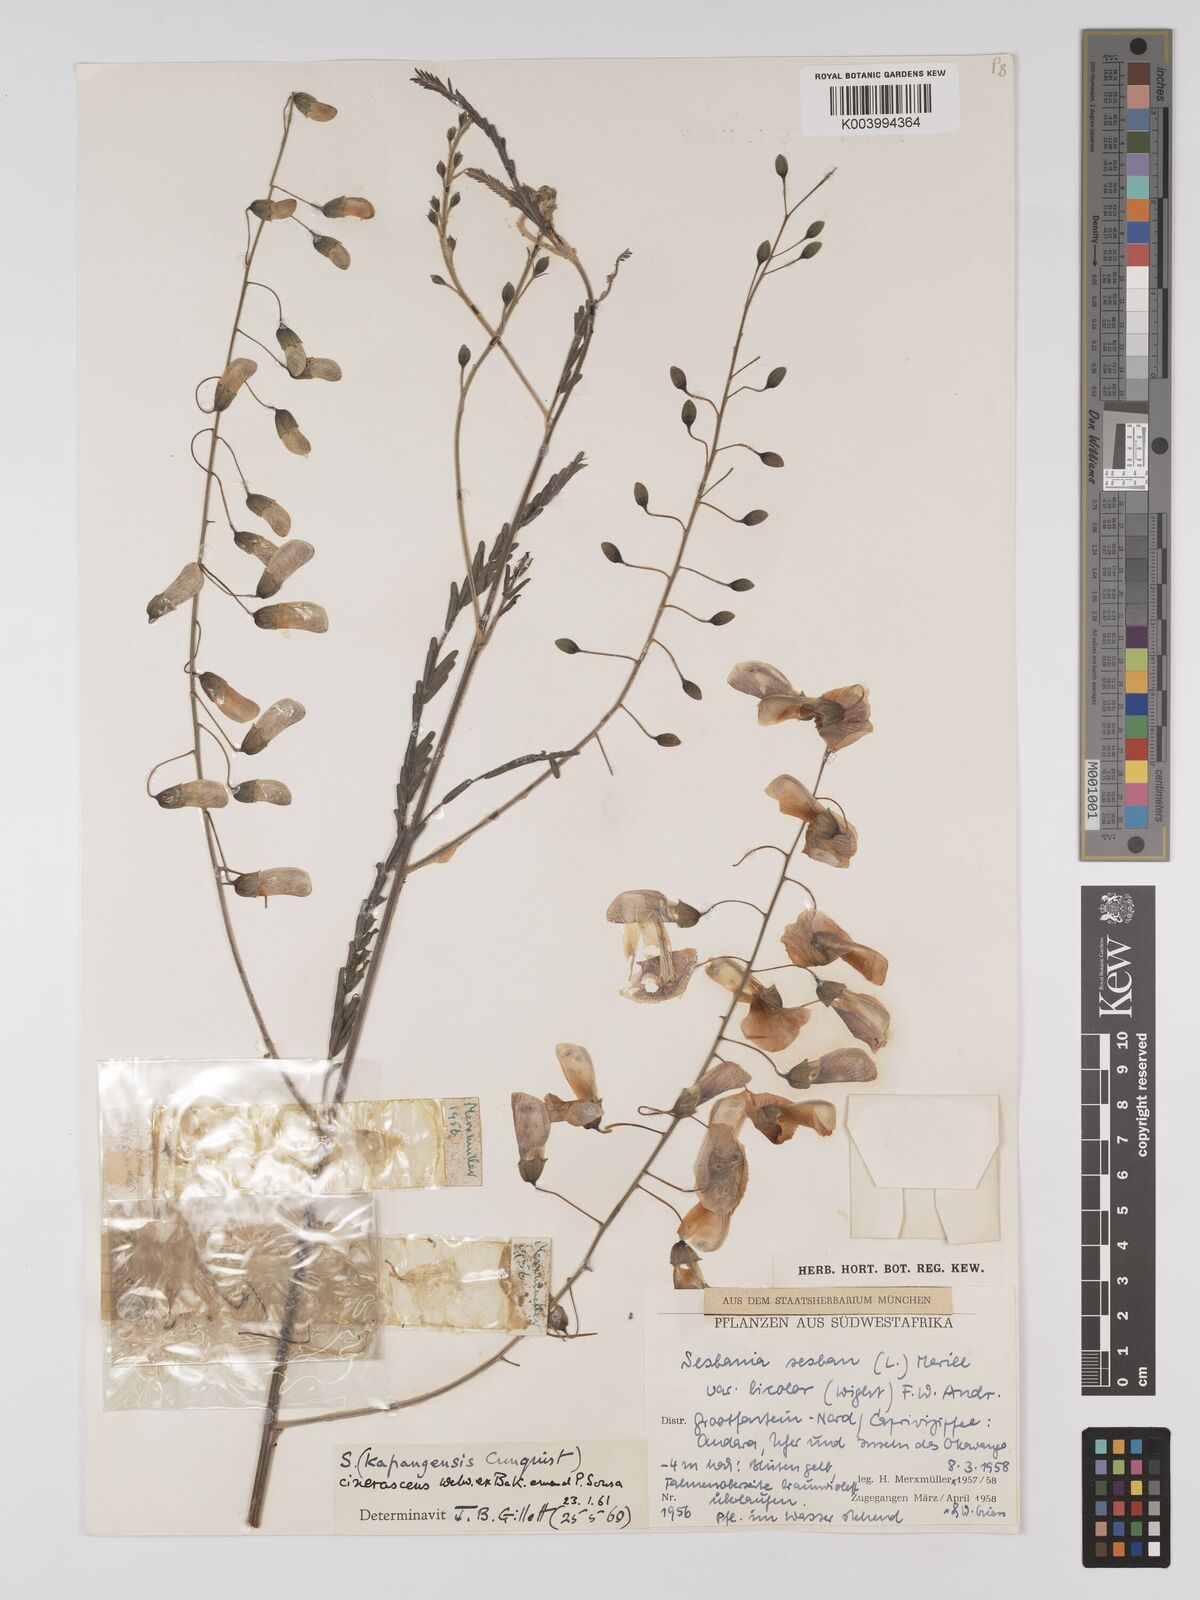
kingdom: Plantae
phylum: Tracheophyta
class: Magnoliopsida
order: Fabales
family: Fabaceae
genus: Sesbania
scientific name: Sesbania cinerascens
